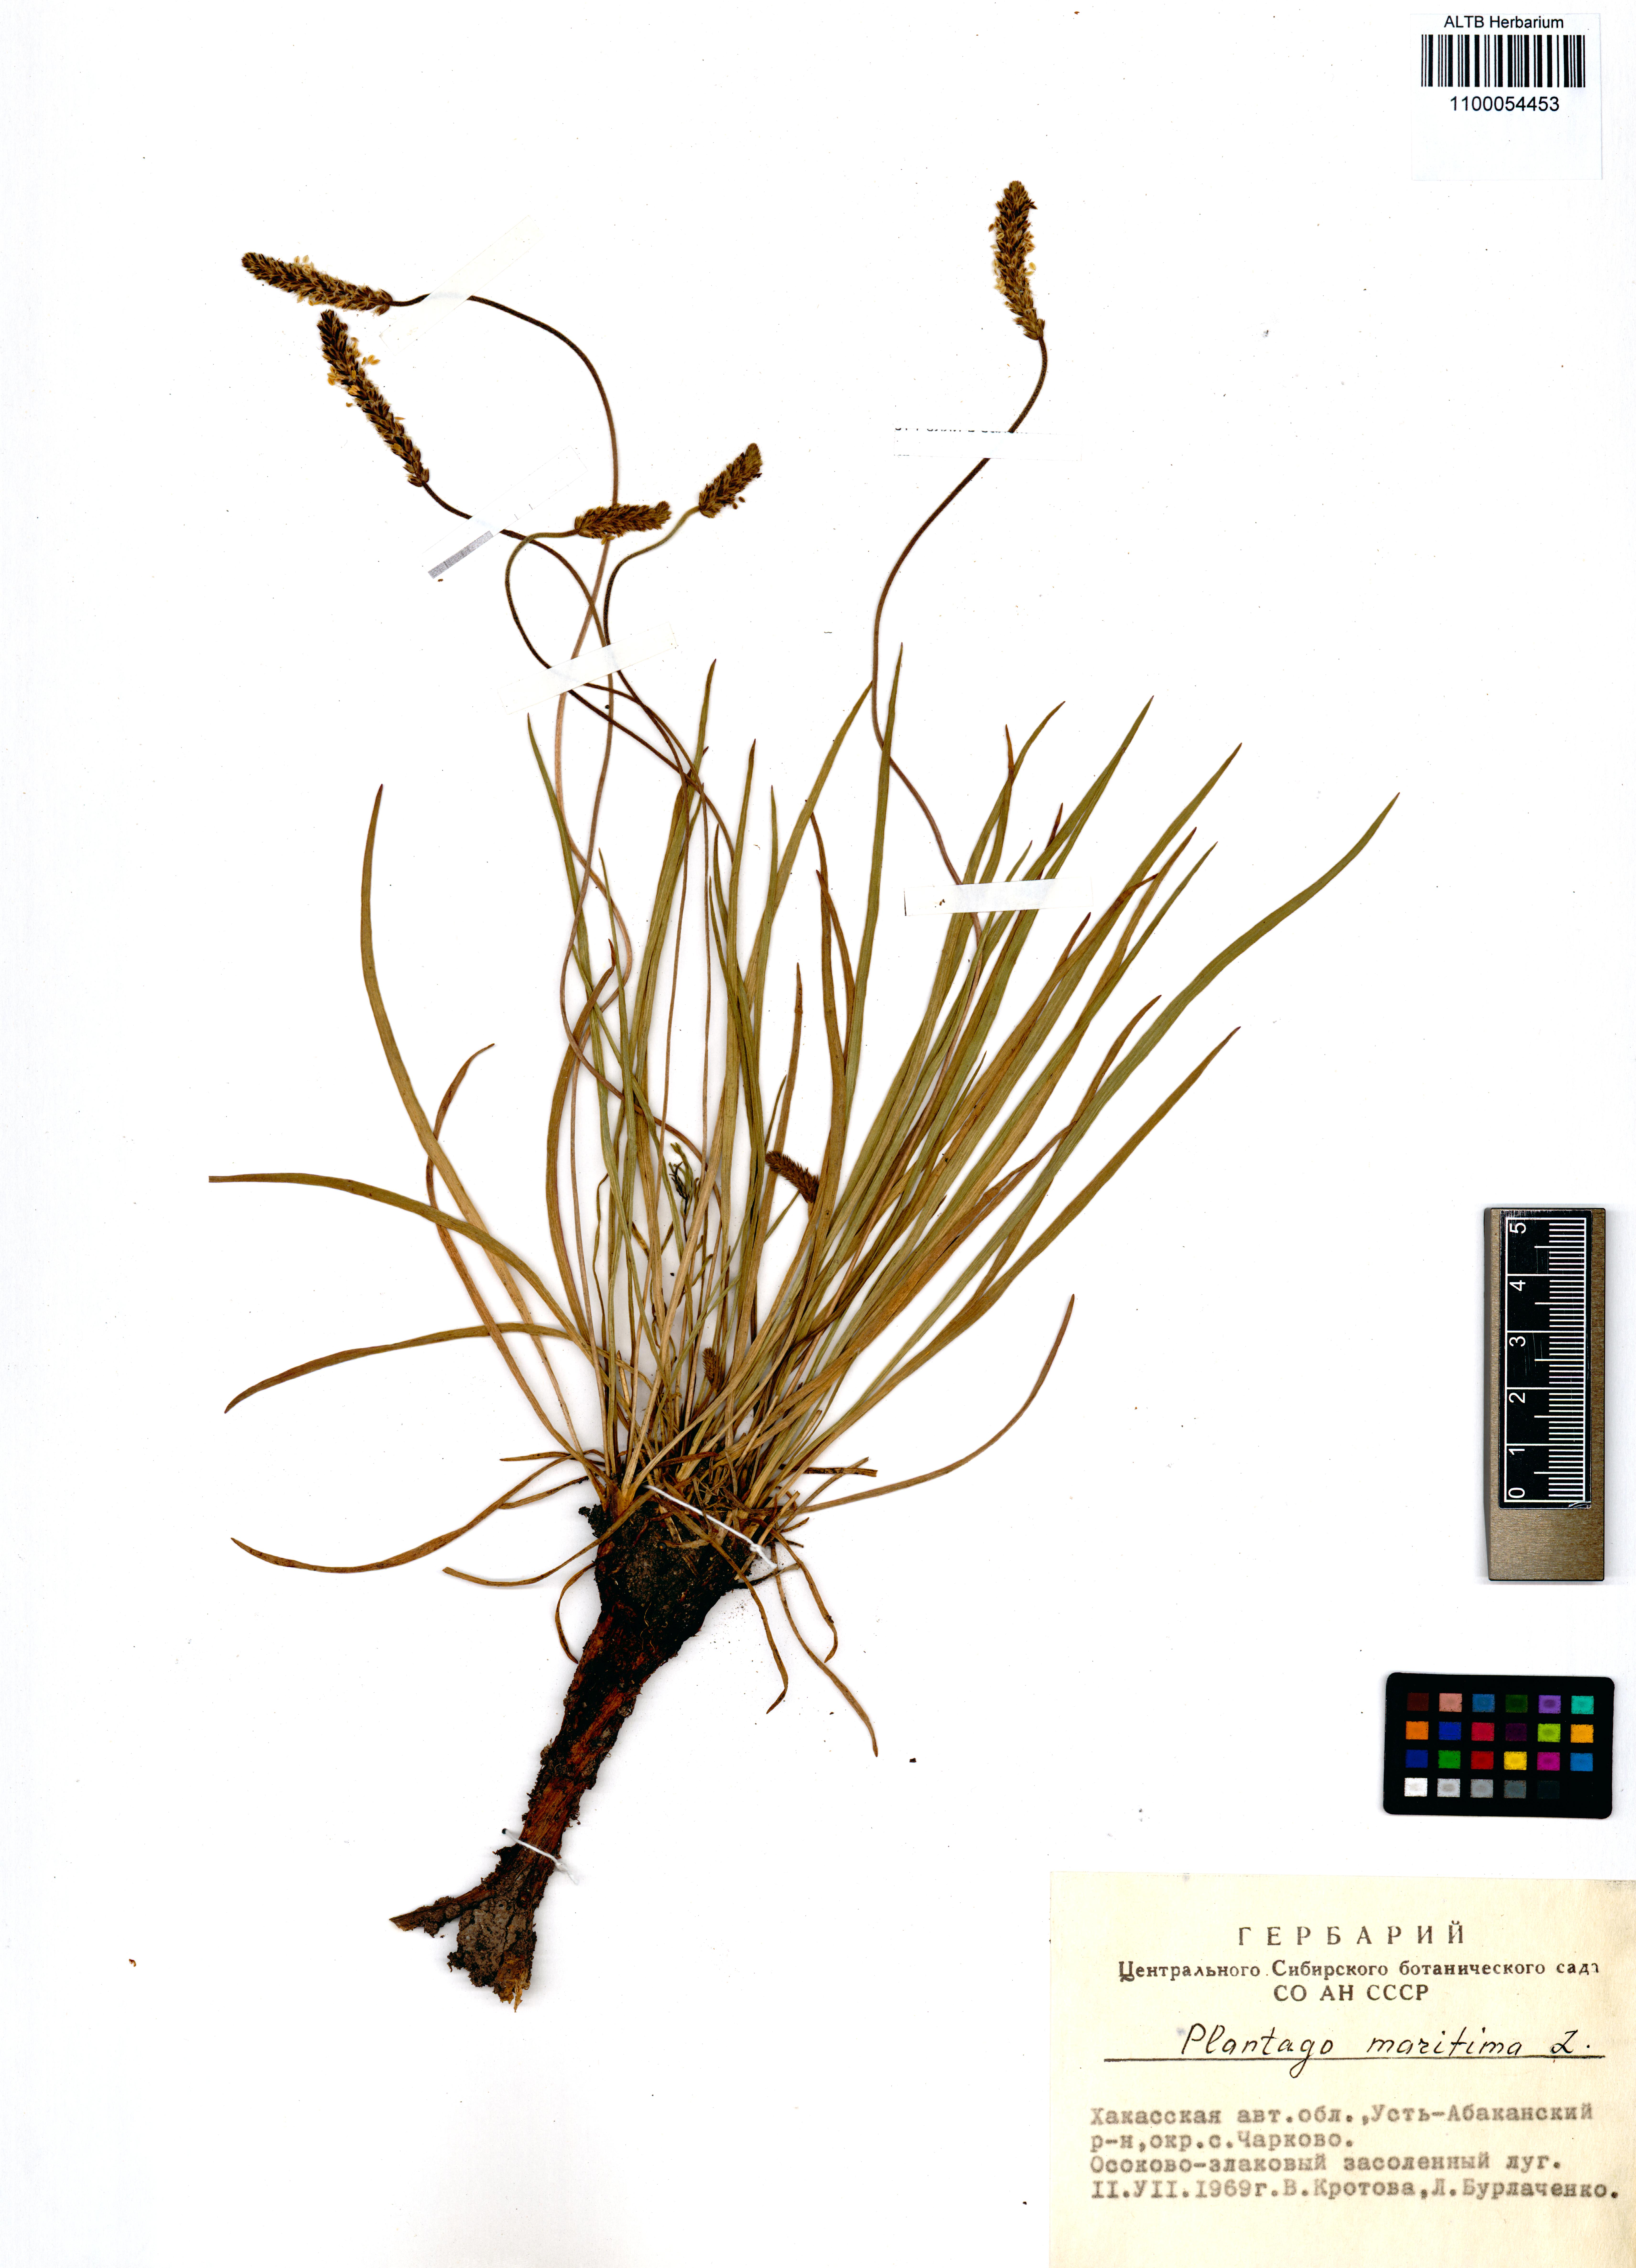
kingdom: Plantae
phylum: Tracheophyta
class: Magnoliopsida
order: Lamiales
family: Plantaginaceae
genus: Plantago
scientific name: Plantago maritima
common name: Sea plantain
